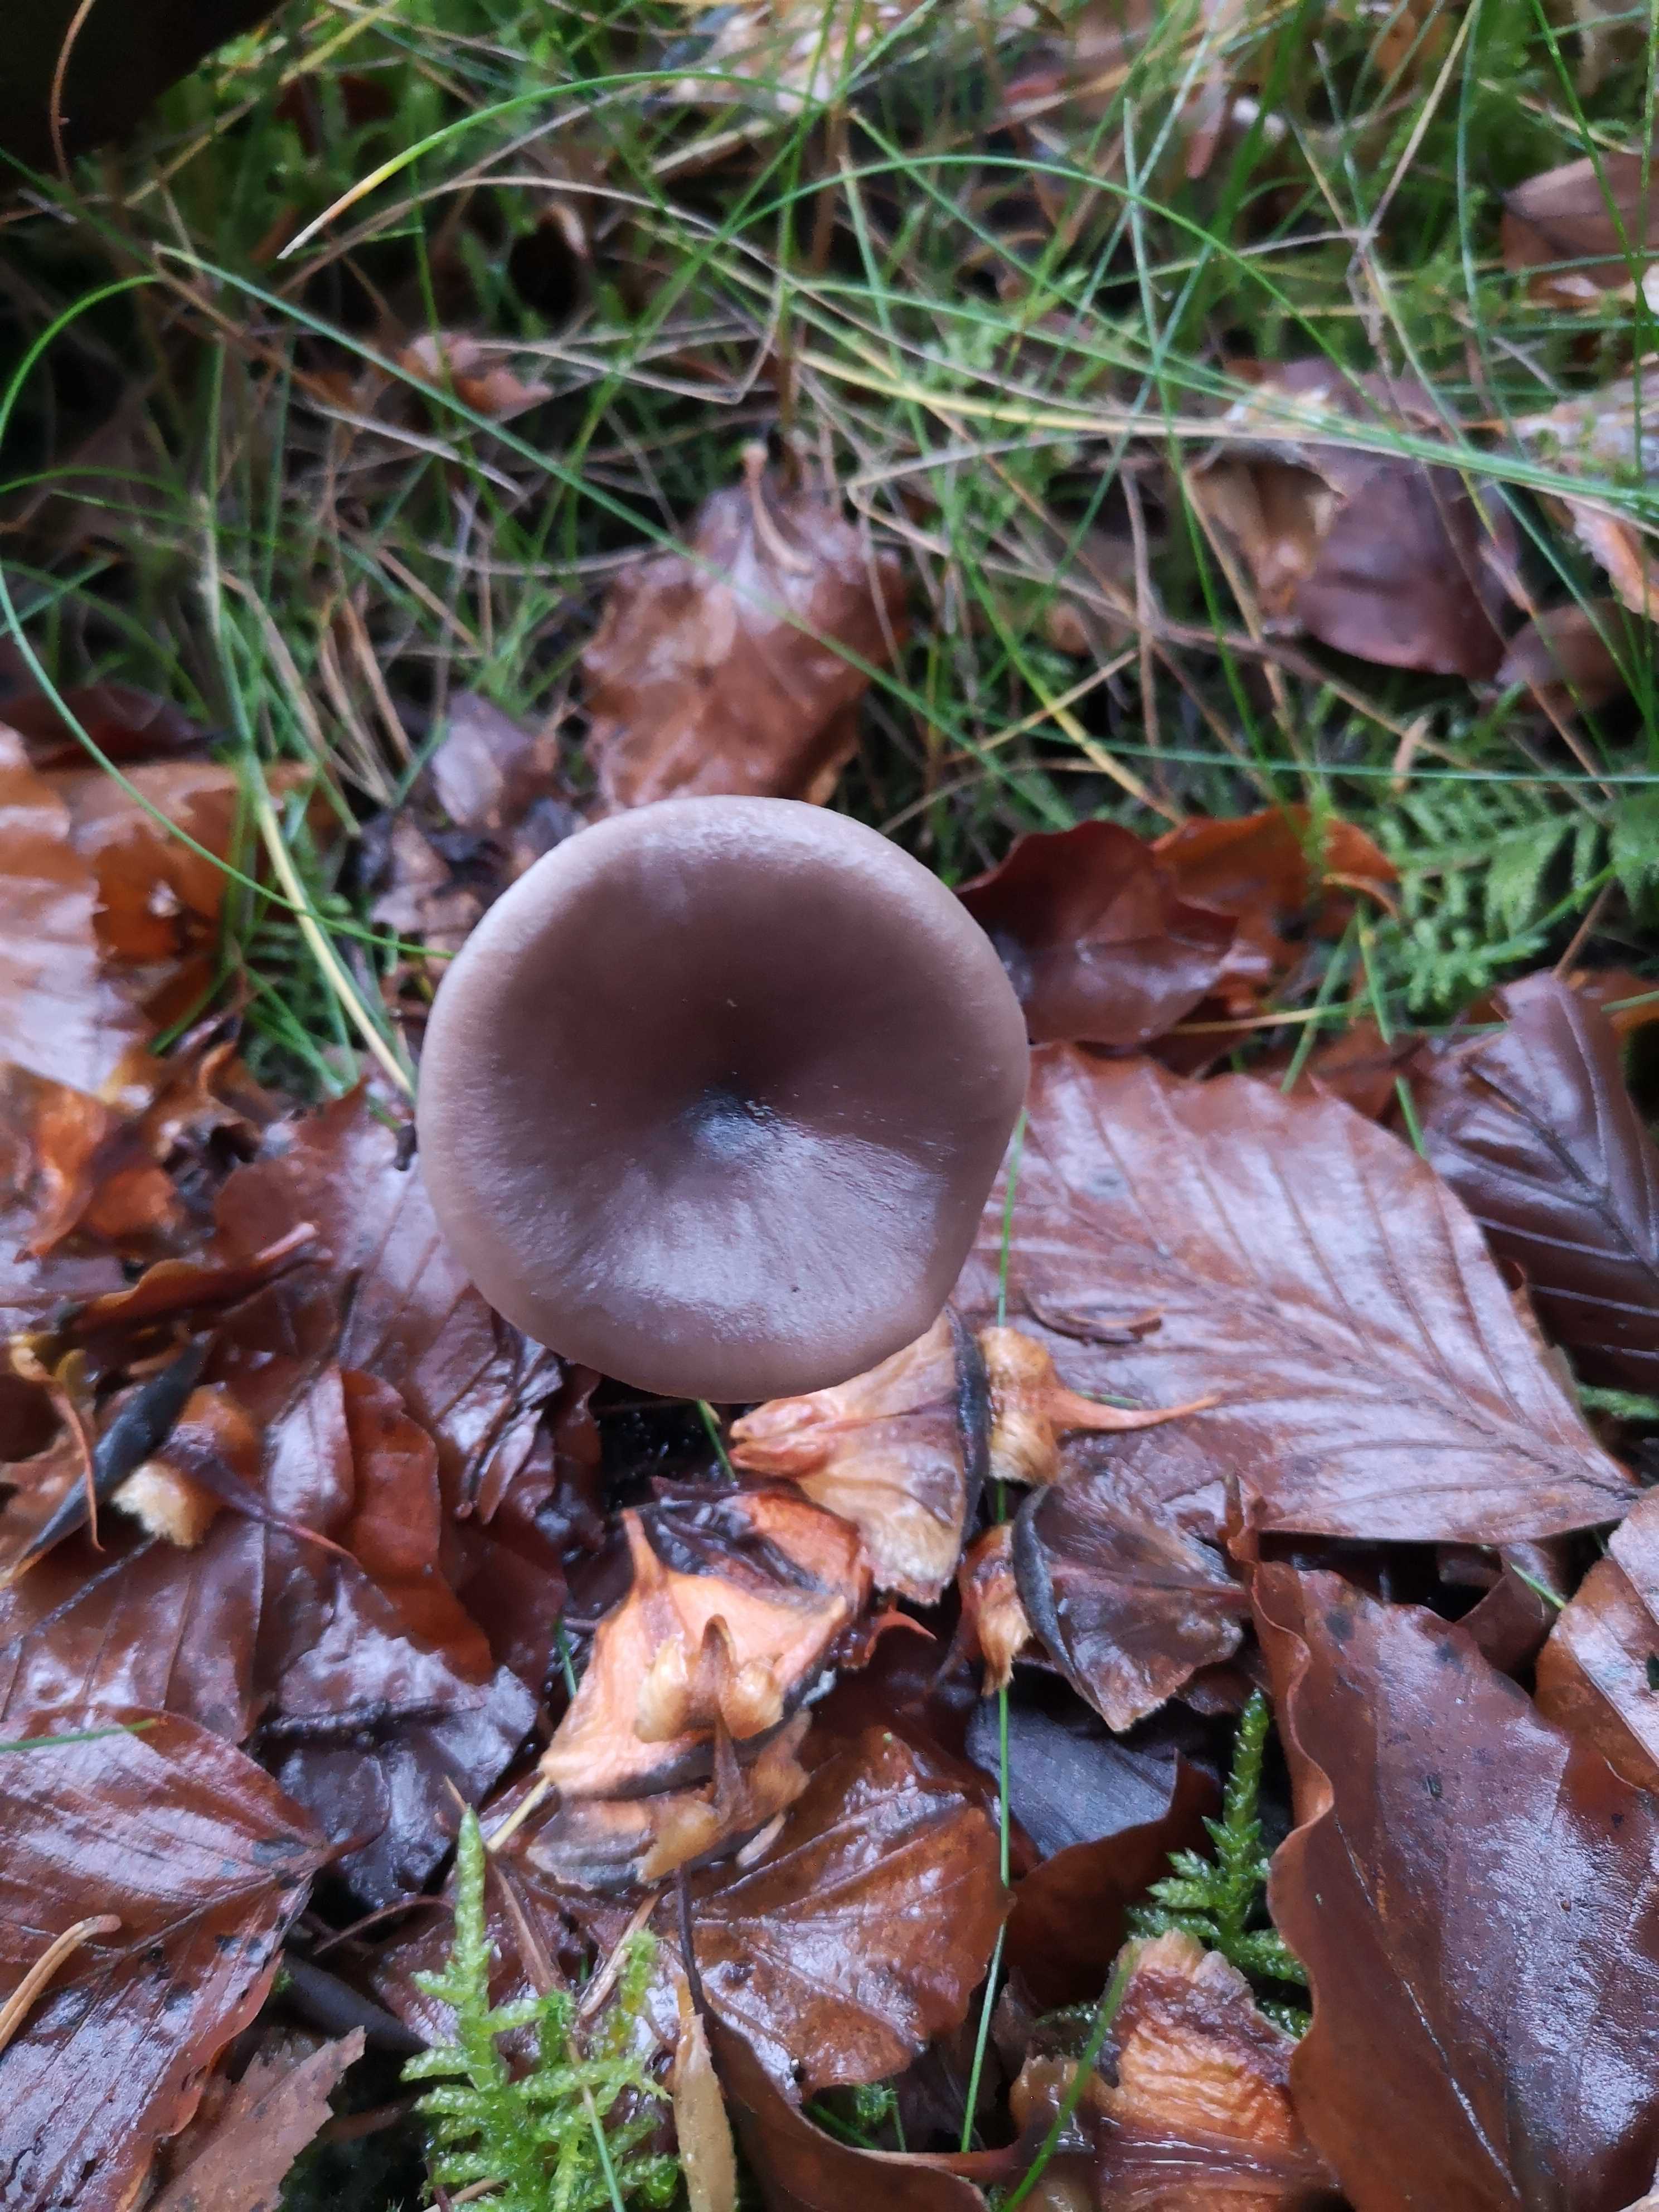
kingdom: Fungi
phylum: Basidiomycota
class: Agaricomycetes
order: Agaricales
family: Pseudoclitocybaceae
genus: Pseudoclitocybe
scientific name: Pseudoclitocybe cyathiformis
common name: almindelig bægertragthat
